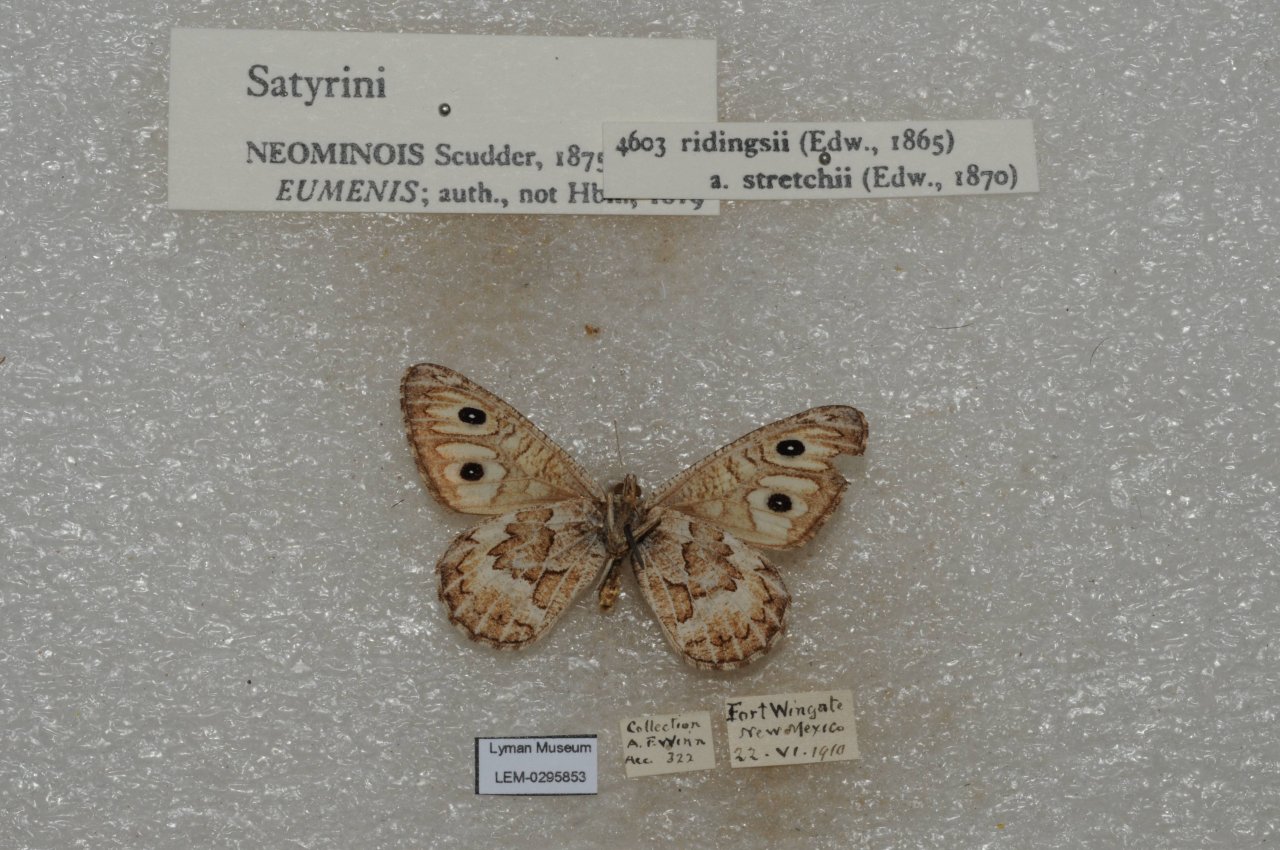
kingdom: Animalia
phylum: Arthropoda
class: Insecta
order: Lepidoptera
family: Nymphalidae
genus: Neominois
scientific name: Neominois ridingsii
